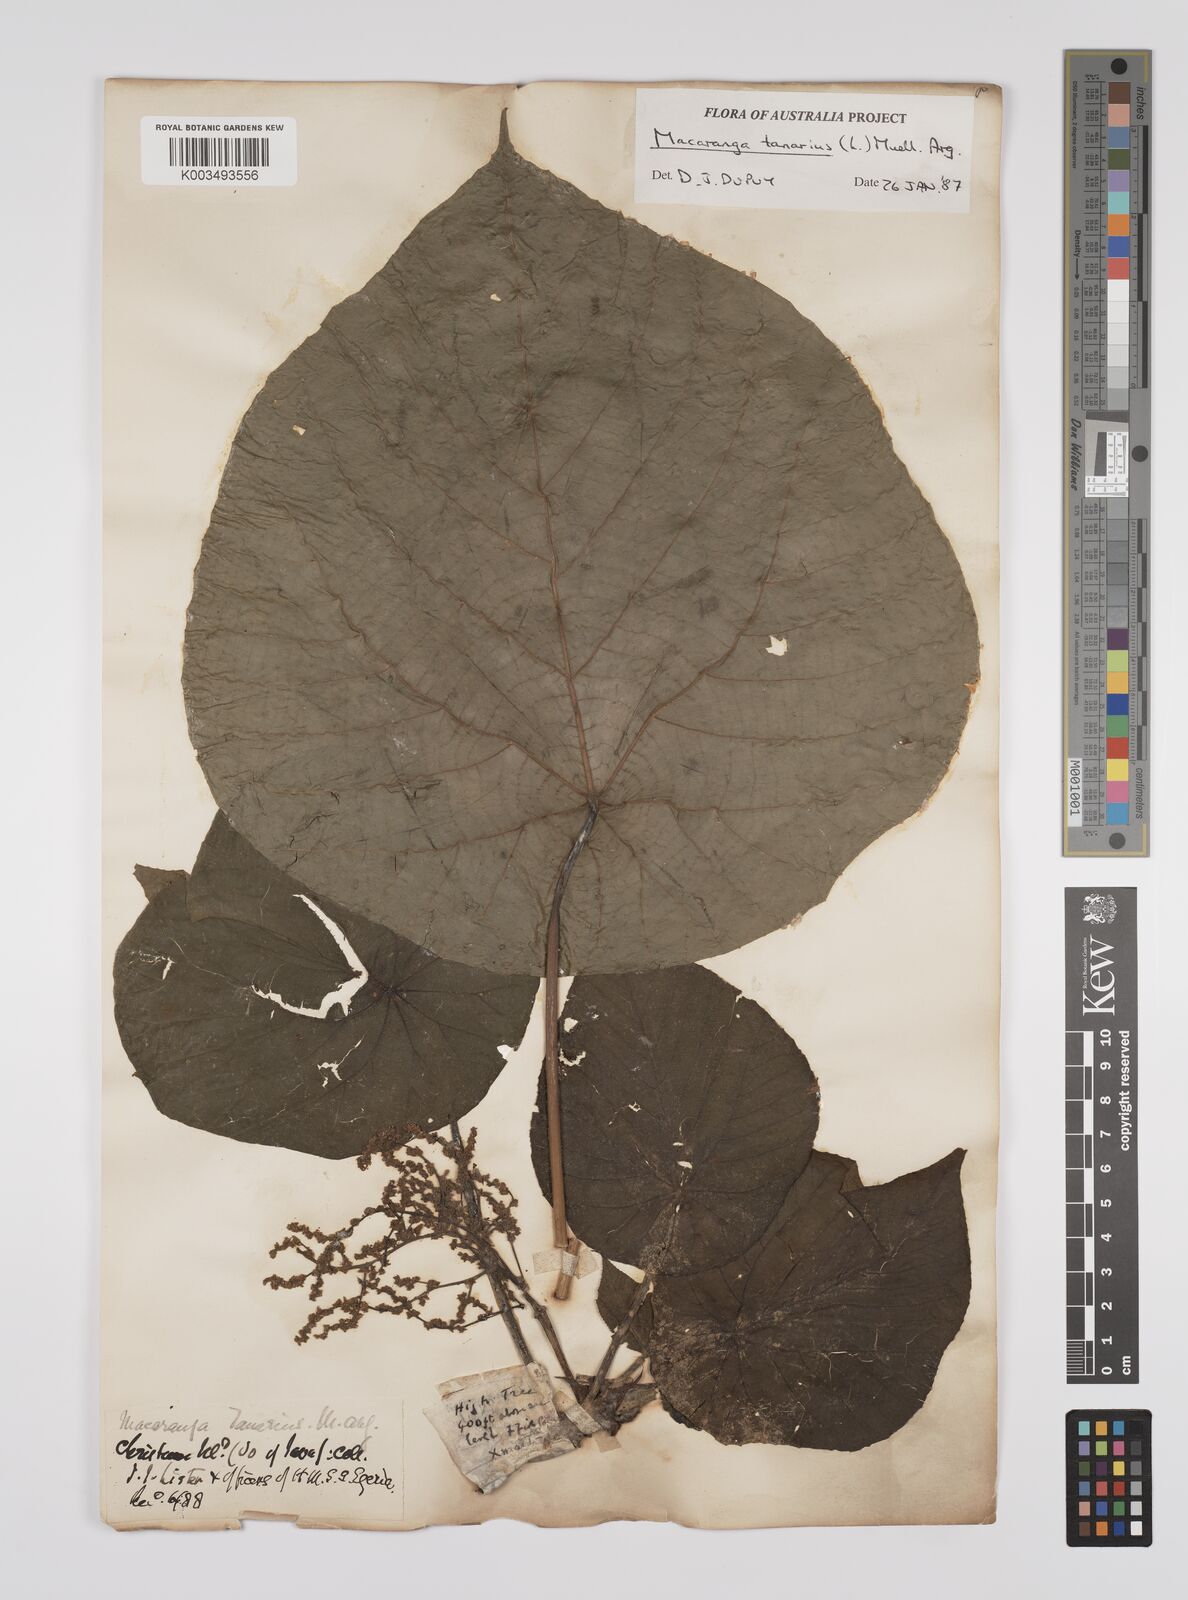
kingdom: Plantae
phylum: Tracheophyta
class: Magnoliopsida
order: Malpighiales
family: Euphorbiaceae
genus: Macaranga
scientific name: Macaranga tanarius
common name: Parasol leaf tree
